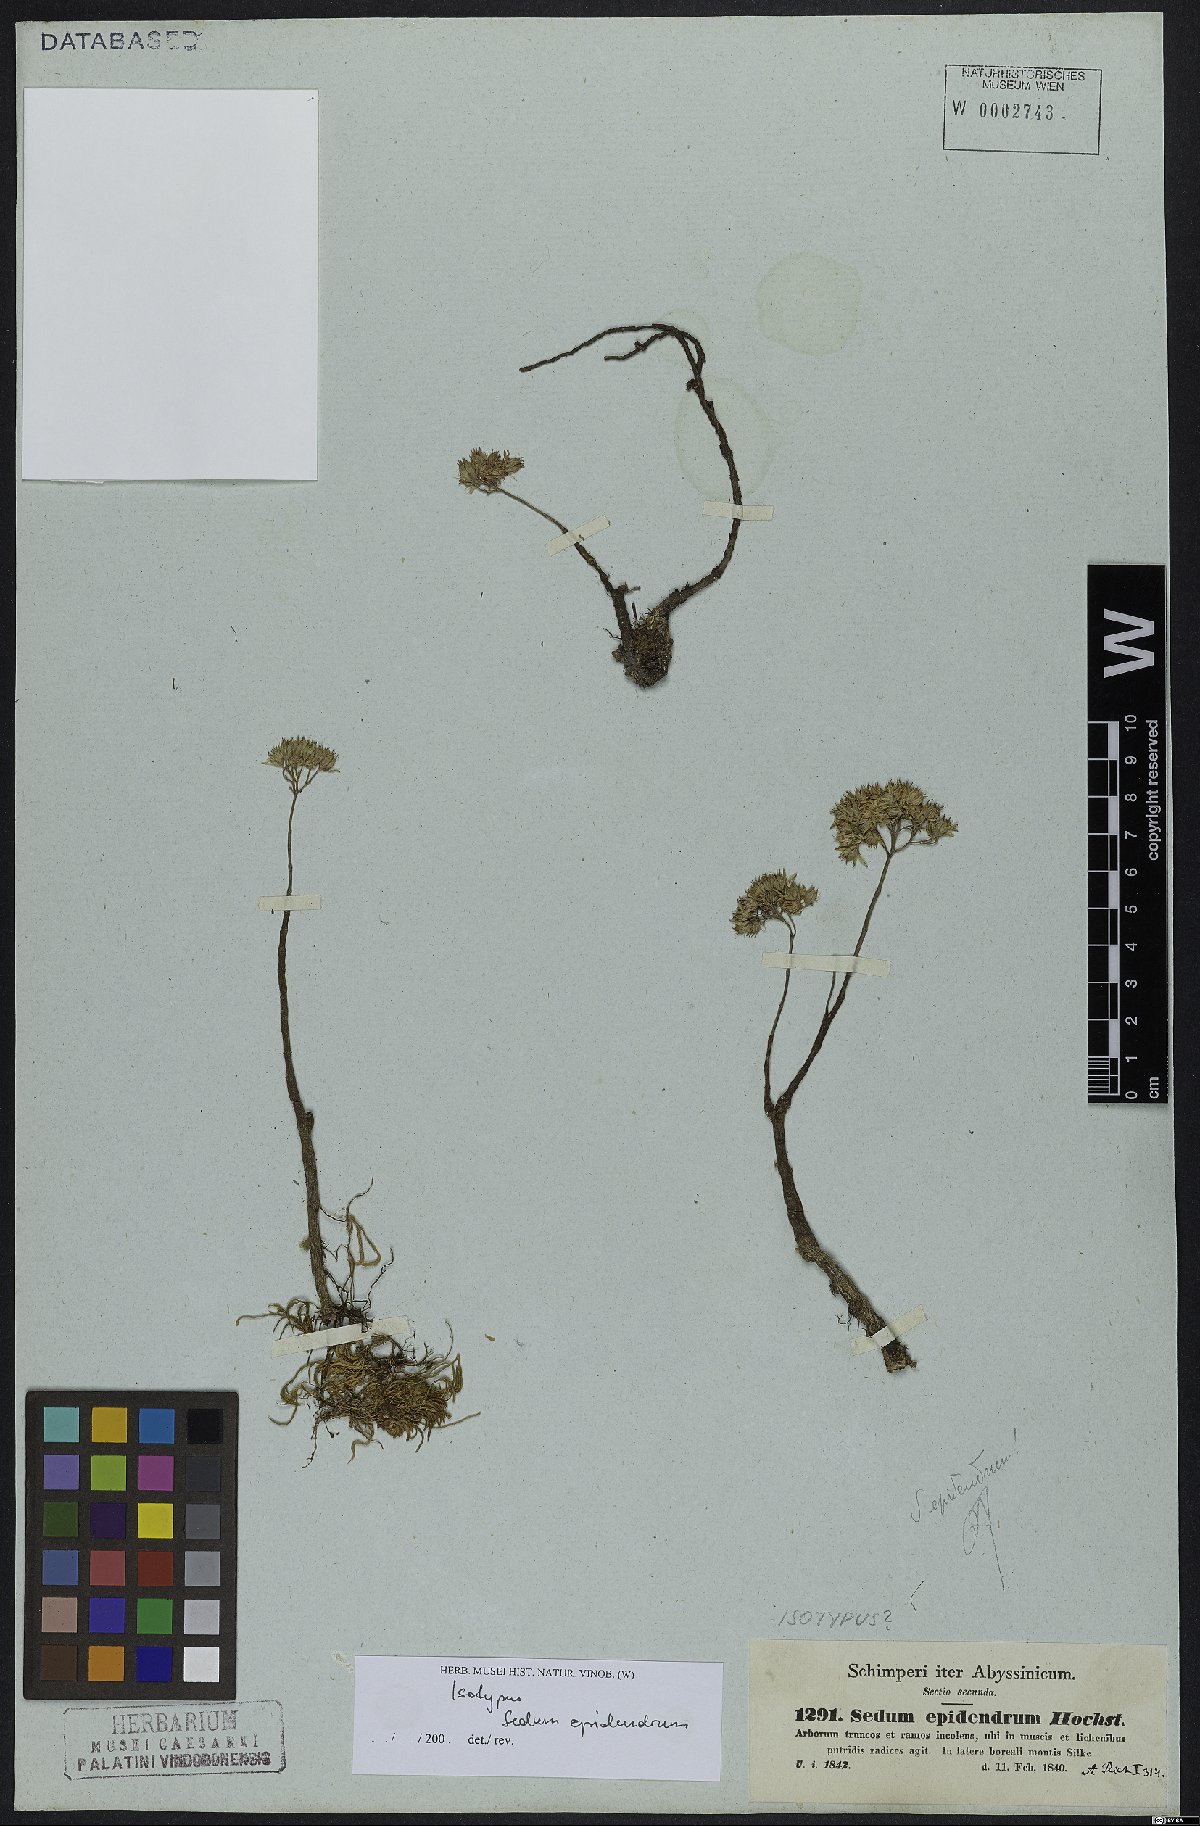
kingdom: Plantae
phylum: Tracheophyta
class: Magnoliopsida
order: Saxifragales
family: Crassulaceae
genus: Sedum
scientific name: Sedum epidendrum
